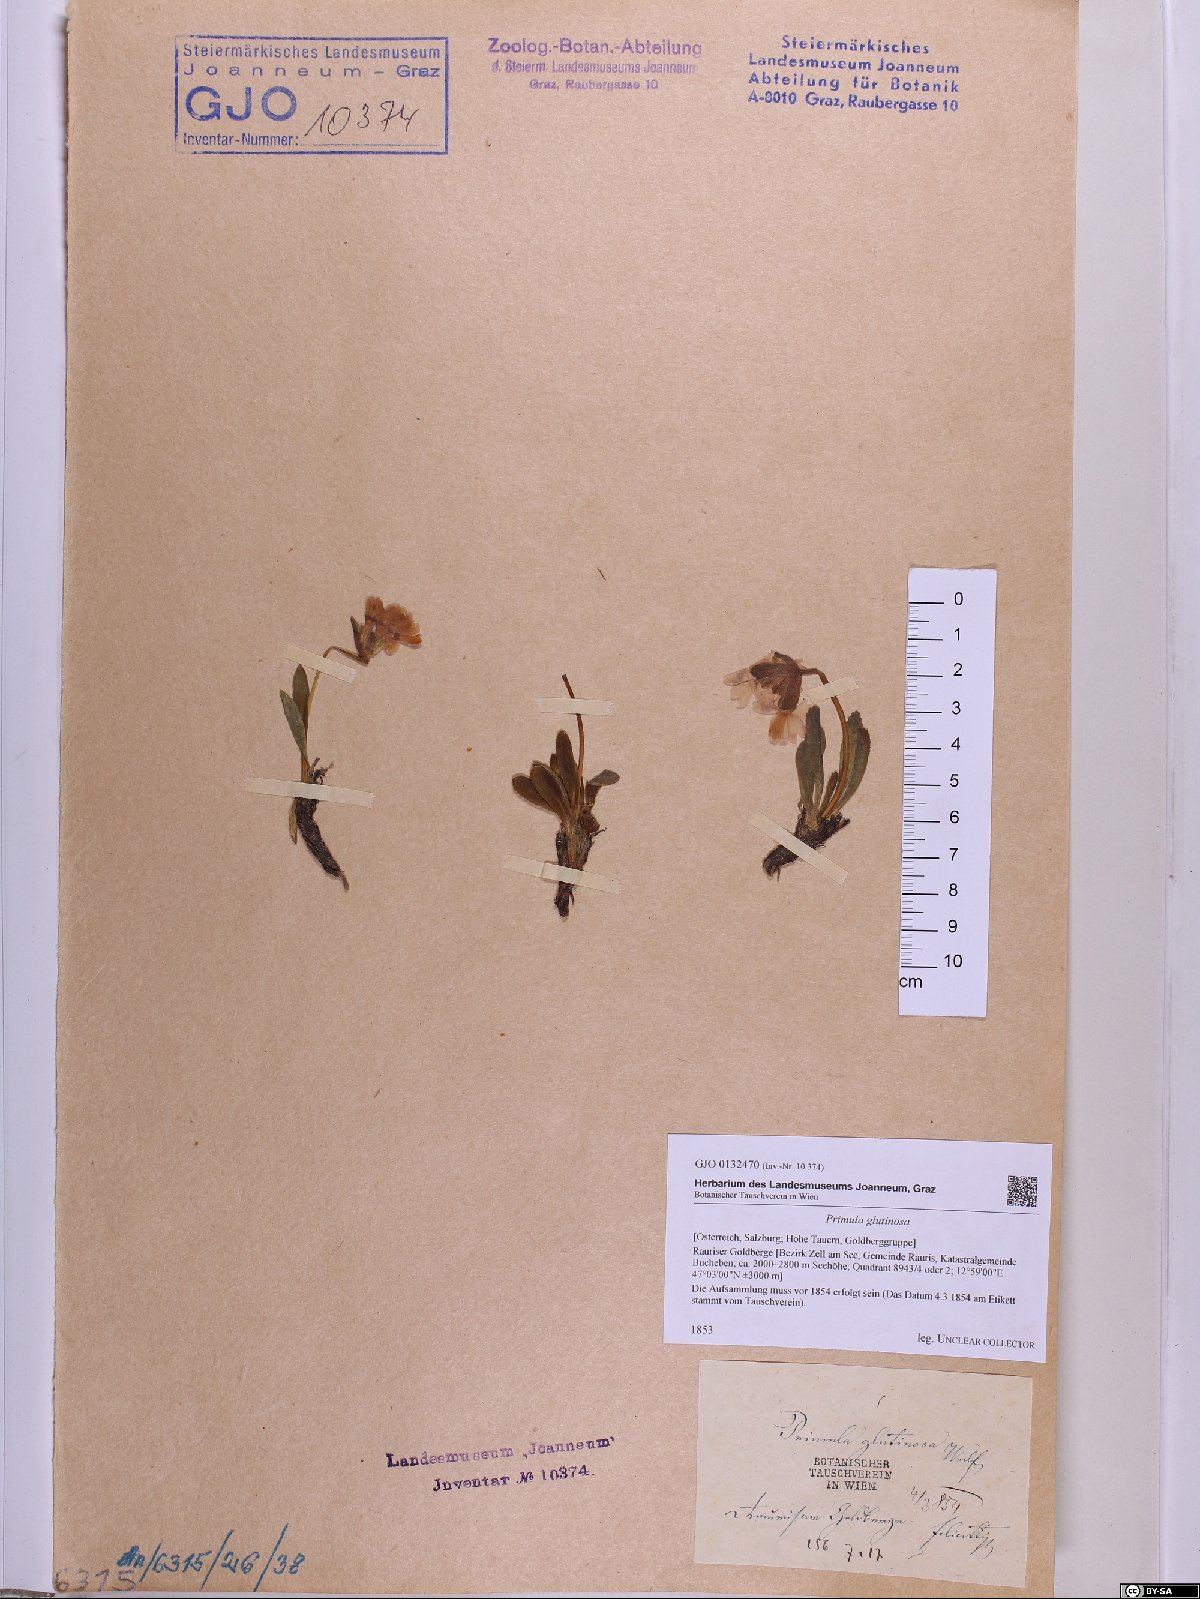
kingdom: Plantae
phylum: Tracheophyta
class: Magnoliopsida
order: Ericales
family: Primulaceae
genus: Primula
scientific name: Primula glutinosa
